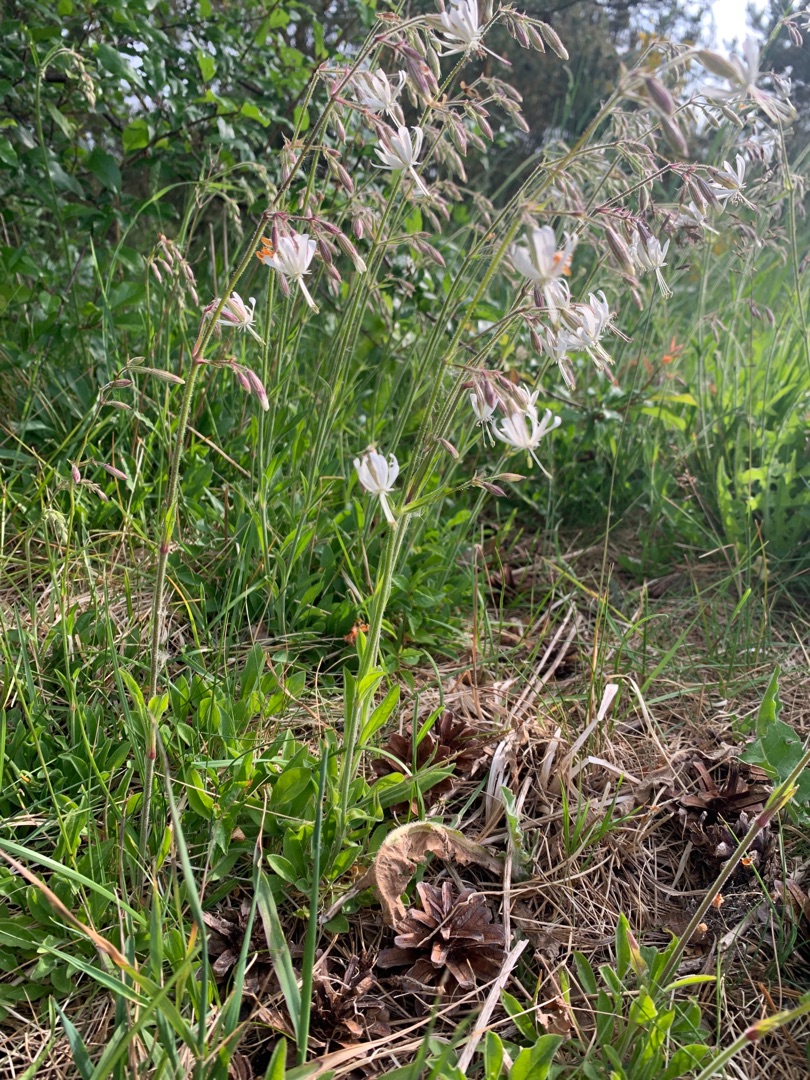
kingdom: Plantae
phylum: Tracheophyta
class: Magnoliopsida
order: Caryophyllales
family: Caryophyllaceae
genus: Silene
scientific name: Silene nutans
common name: Nikkende limurt
